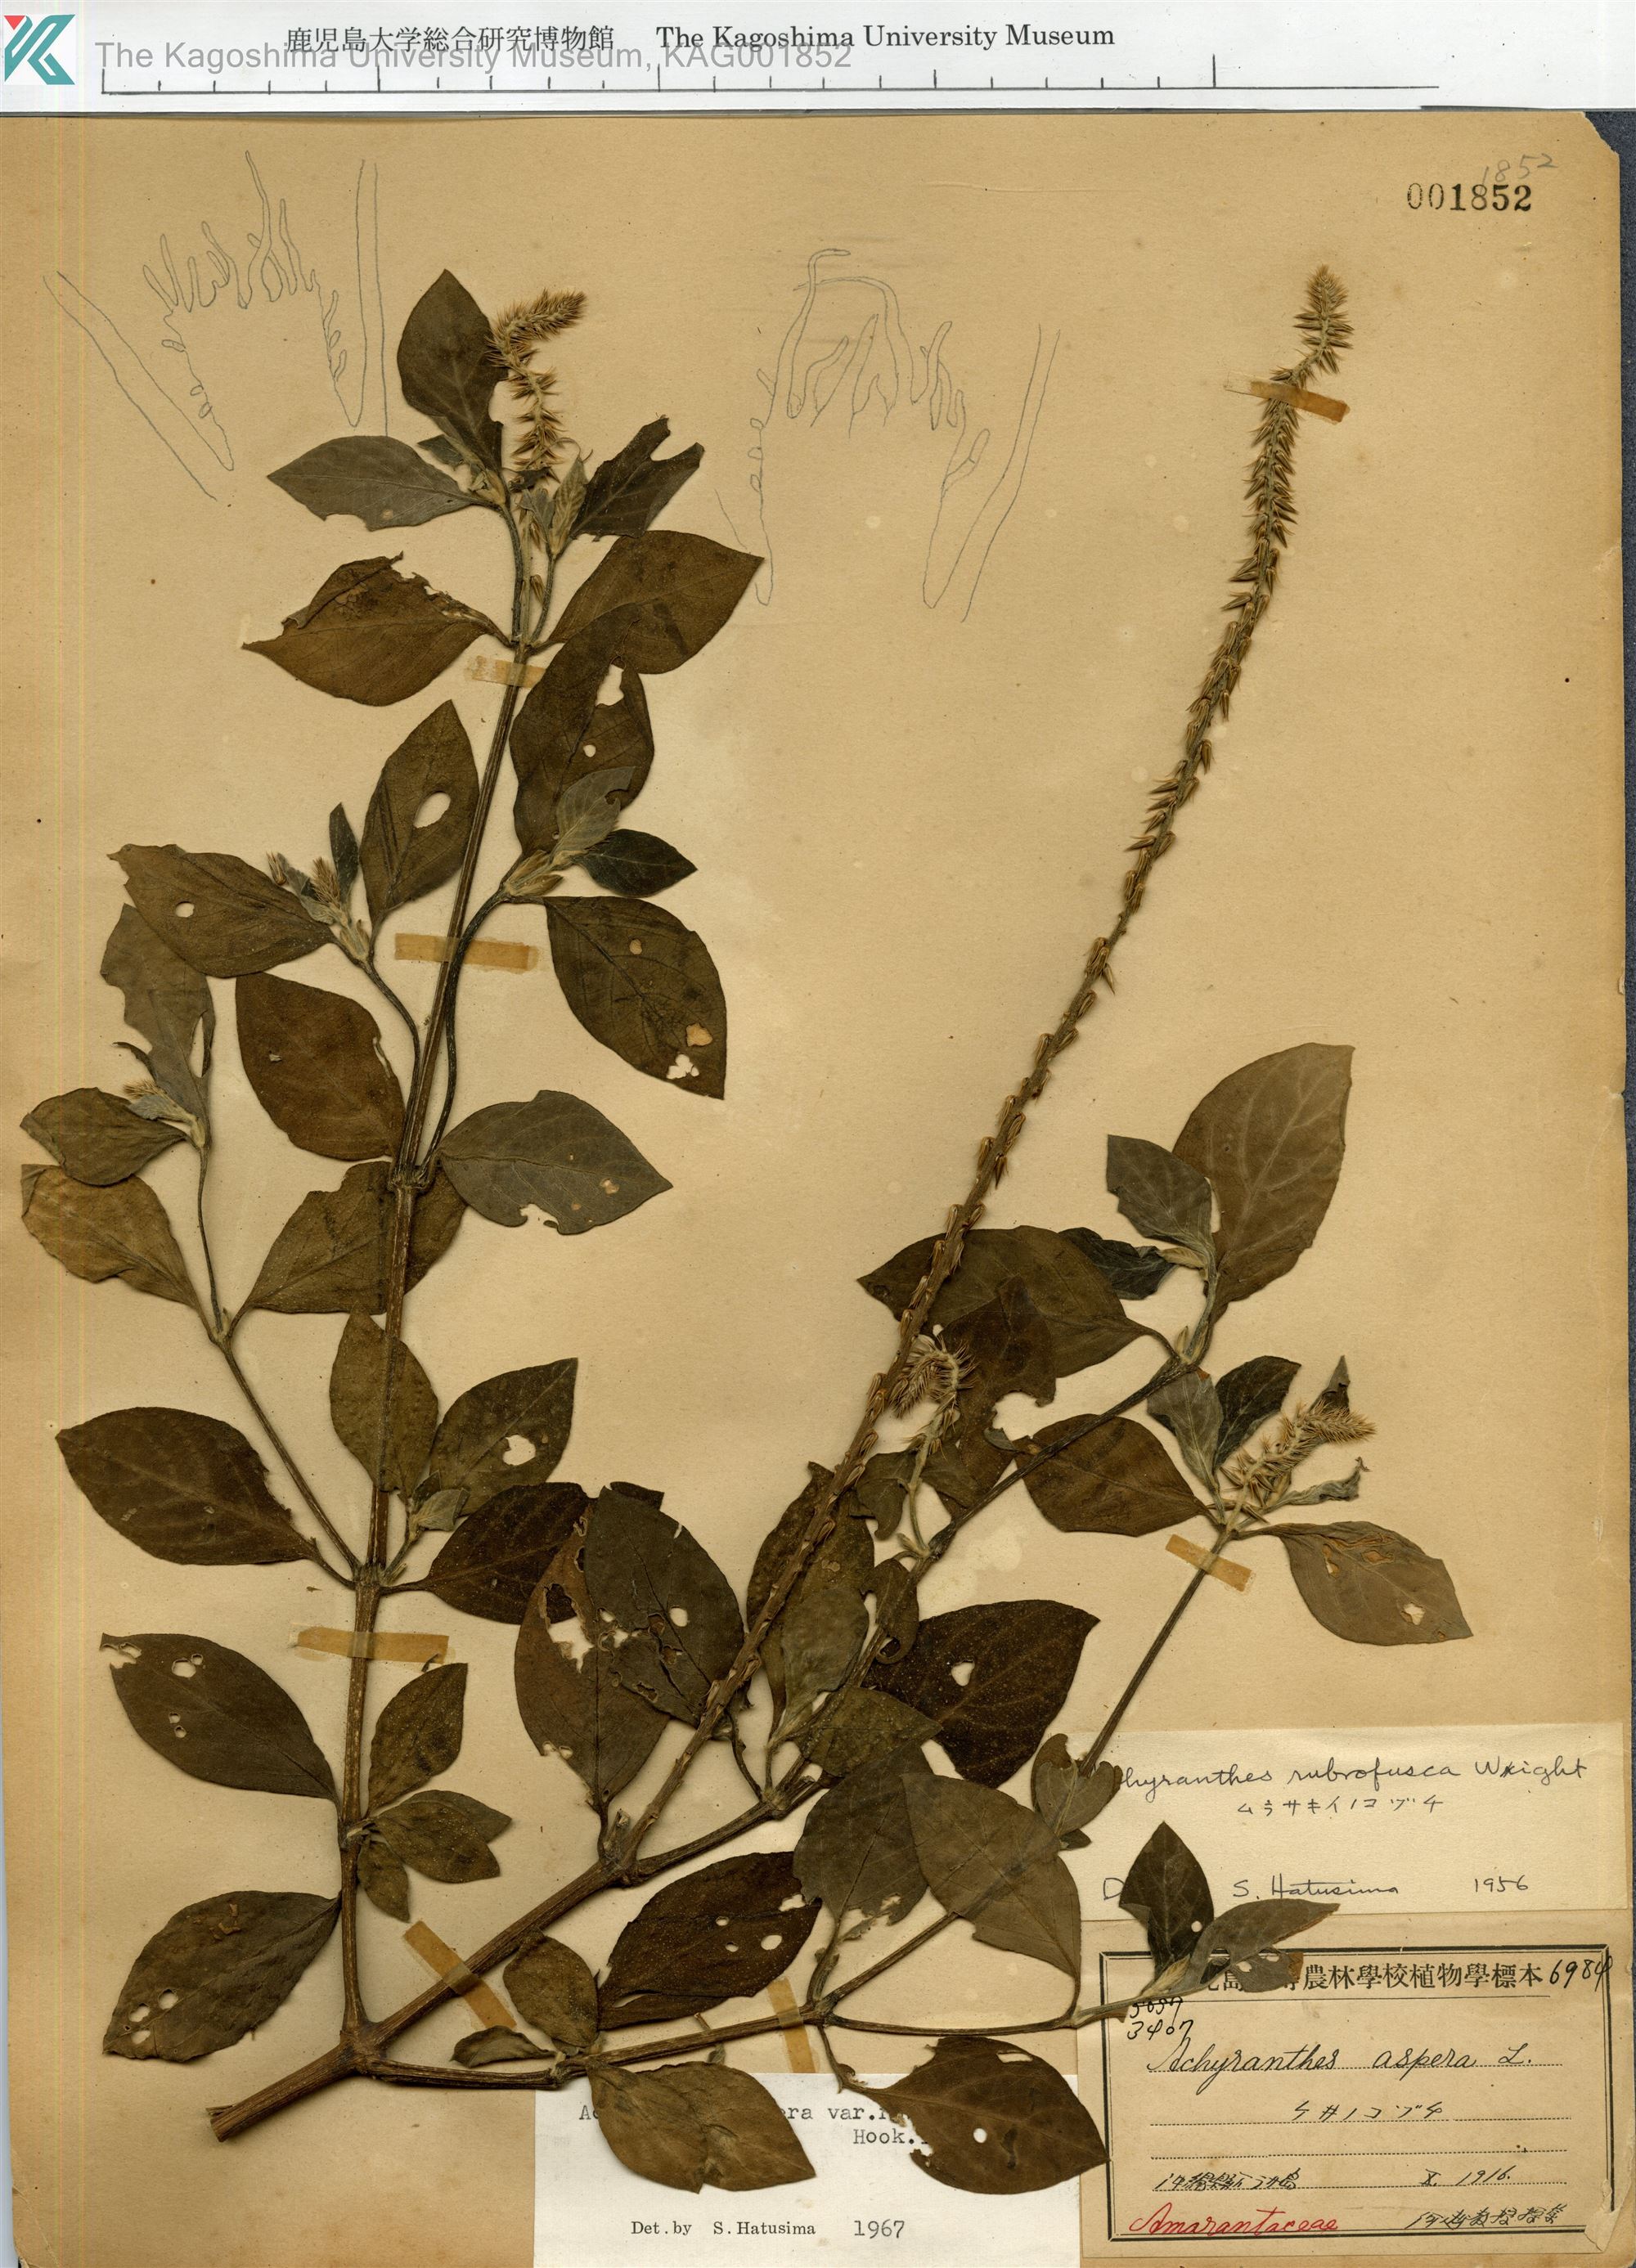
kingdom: Plantae
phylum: Tracheophyta
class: Magnoliopsida
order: Caryophyllales
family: Amaranthaceae
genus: Achyranthes
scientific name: Achyranthes aspera
